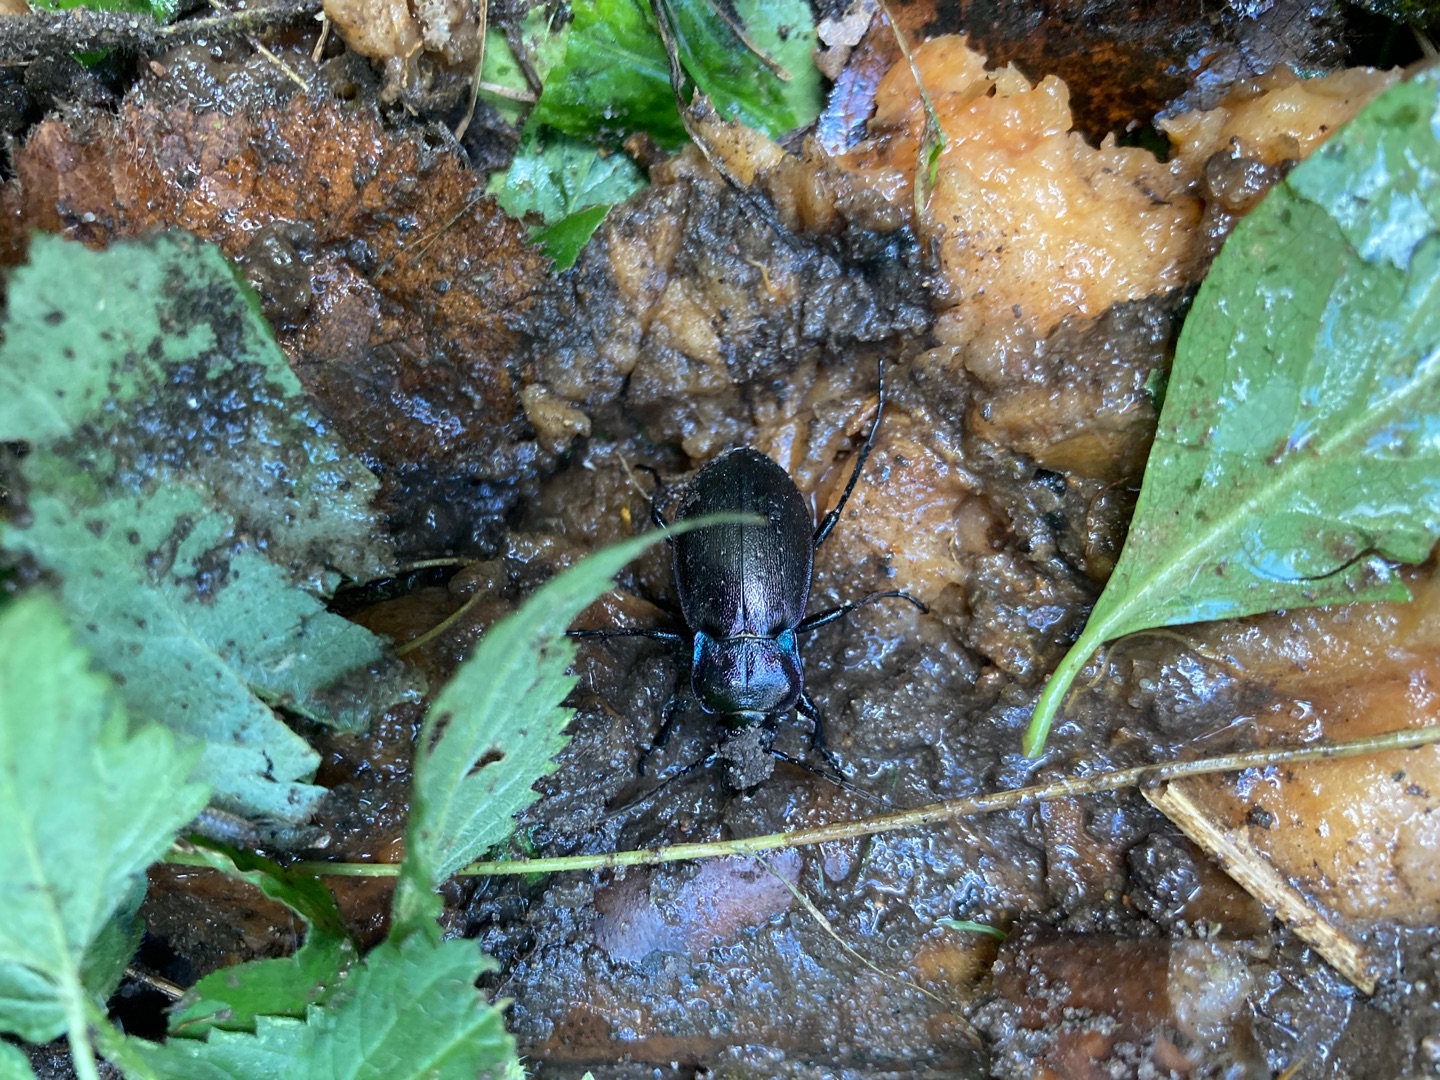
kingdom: Animalia
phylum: Arthropoda
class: Insecta
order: Coleoptera
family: Carabidae
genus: Carabus
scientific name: Carabus nemoralis
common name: Kratløber
